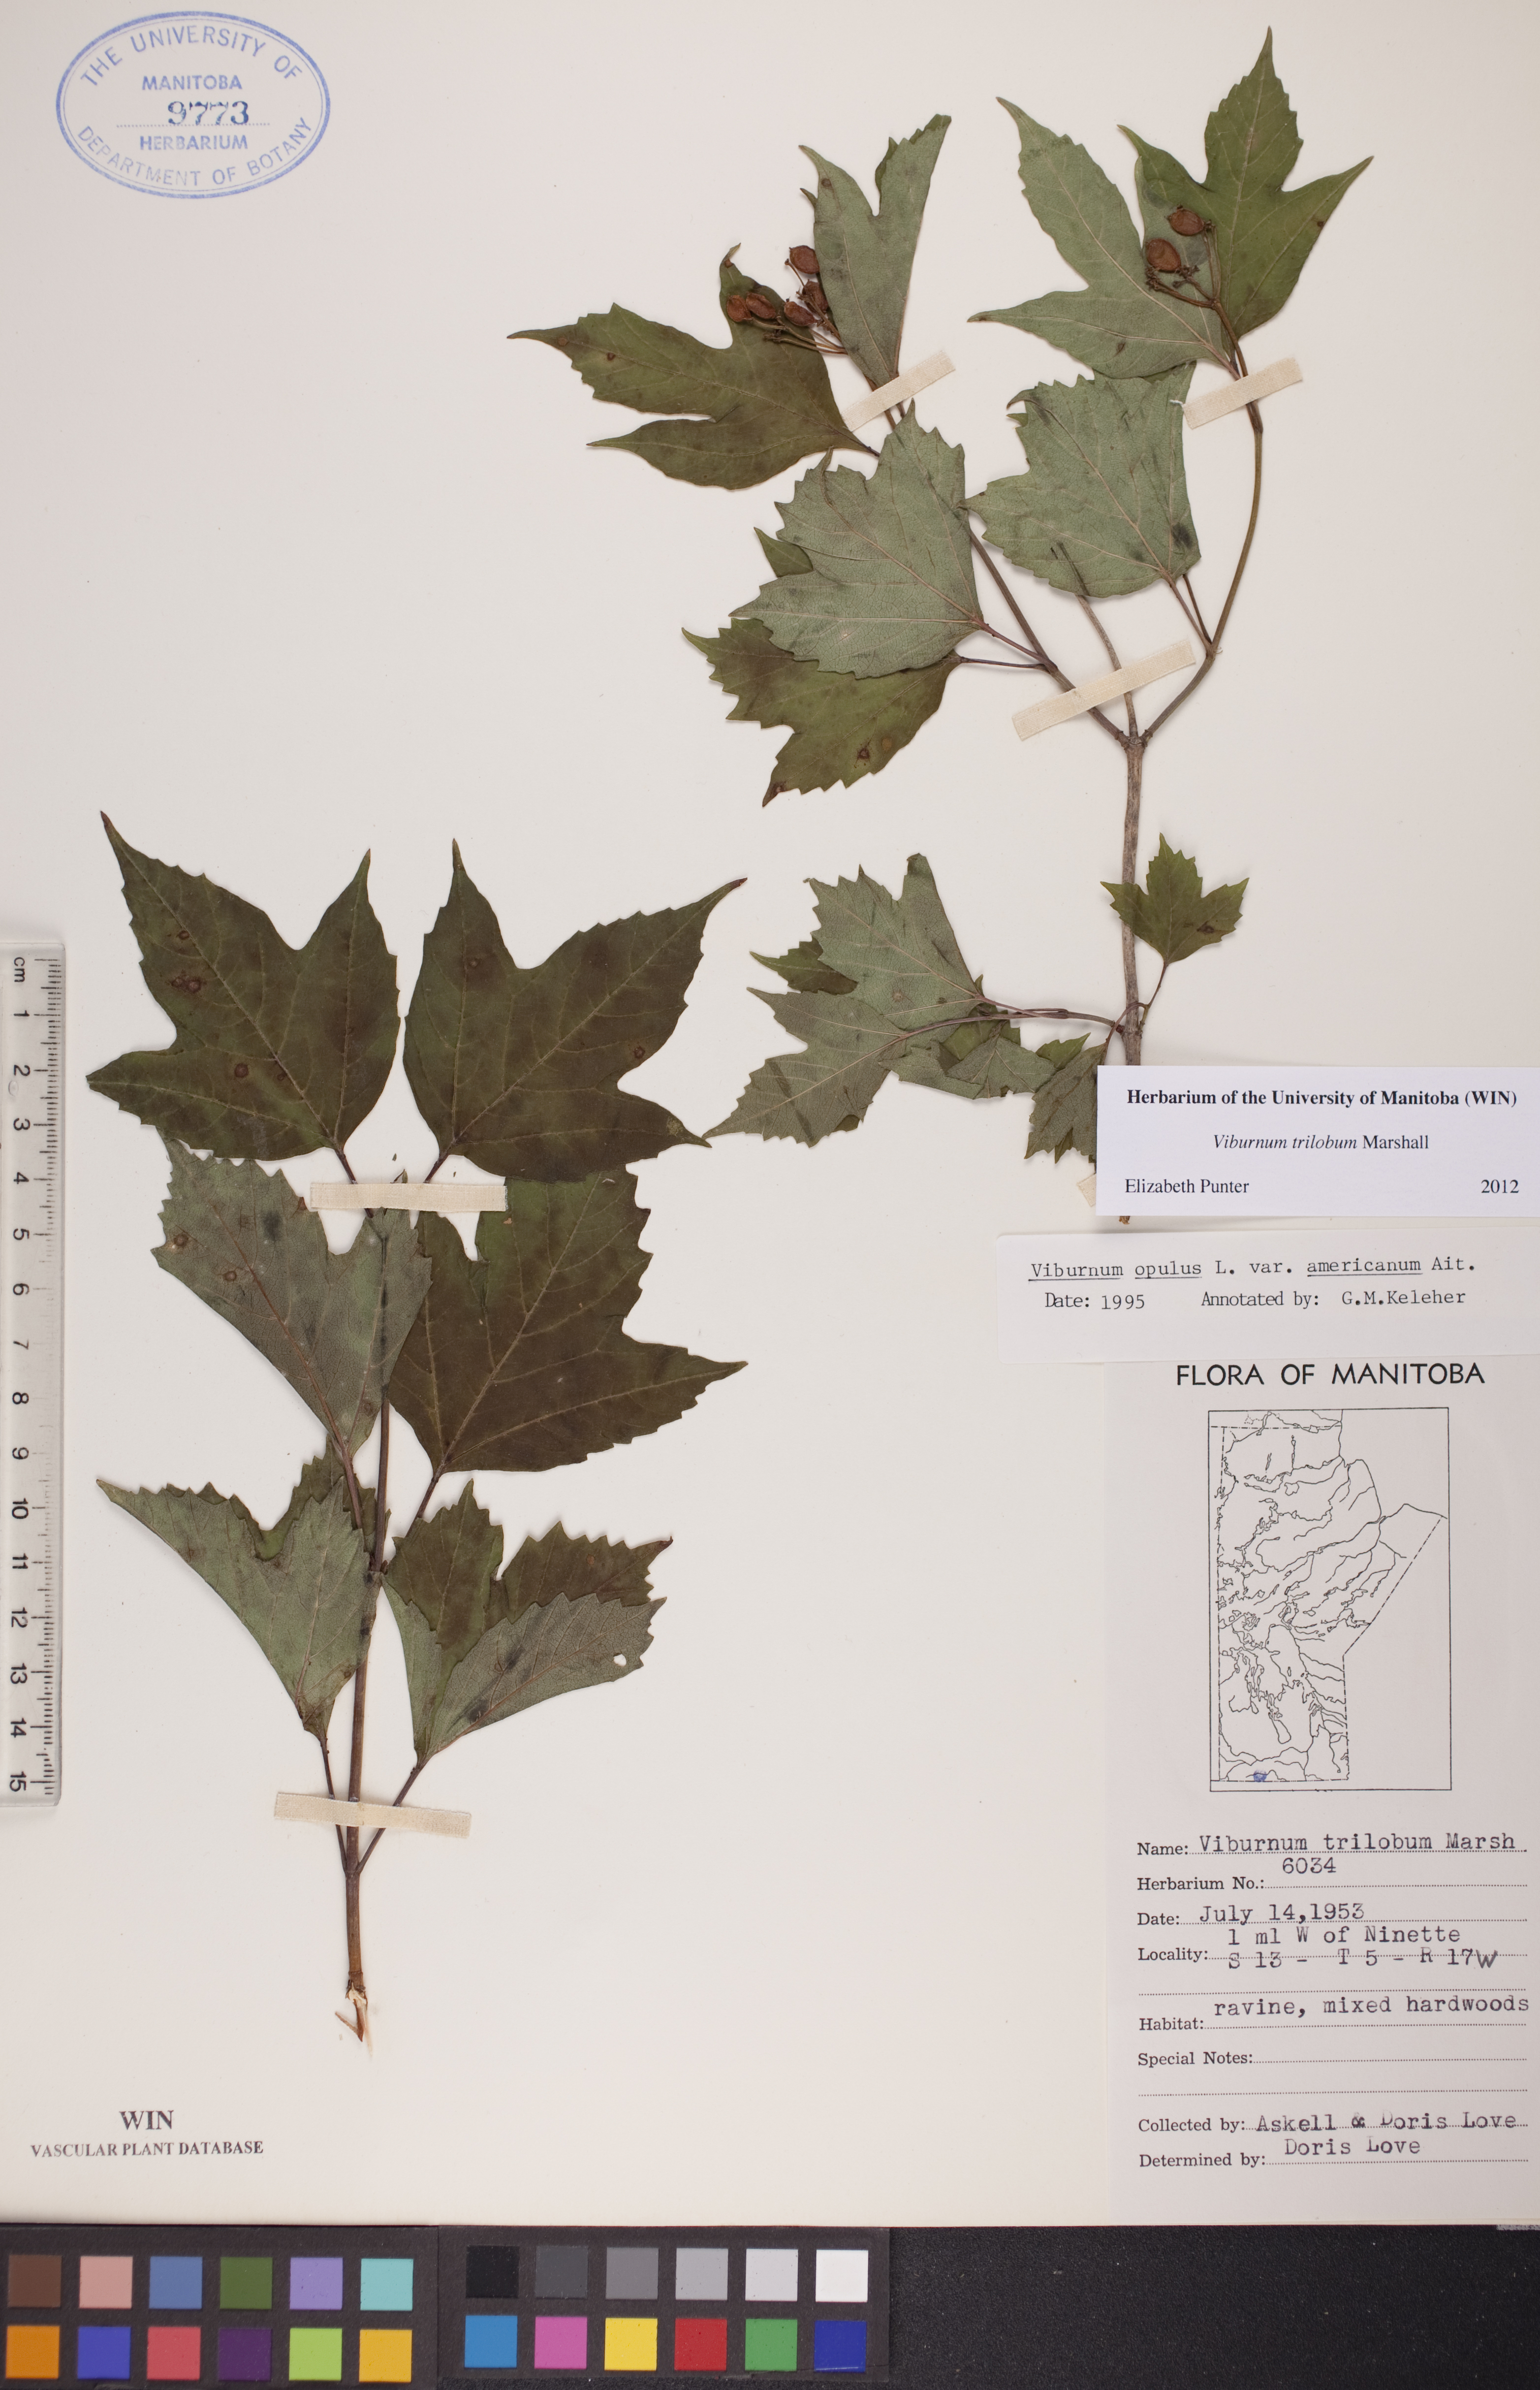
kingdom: Plantae
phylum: Tracheophyta
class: Magnoliopsida
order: Dipsacales
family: Viburnaceae
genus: Viburnum
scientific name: Viburnum trilobum
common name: American cranberrybush
